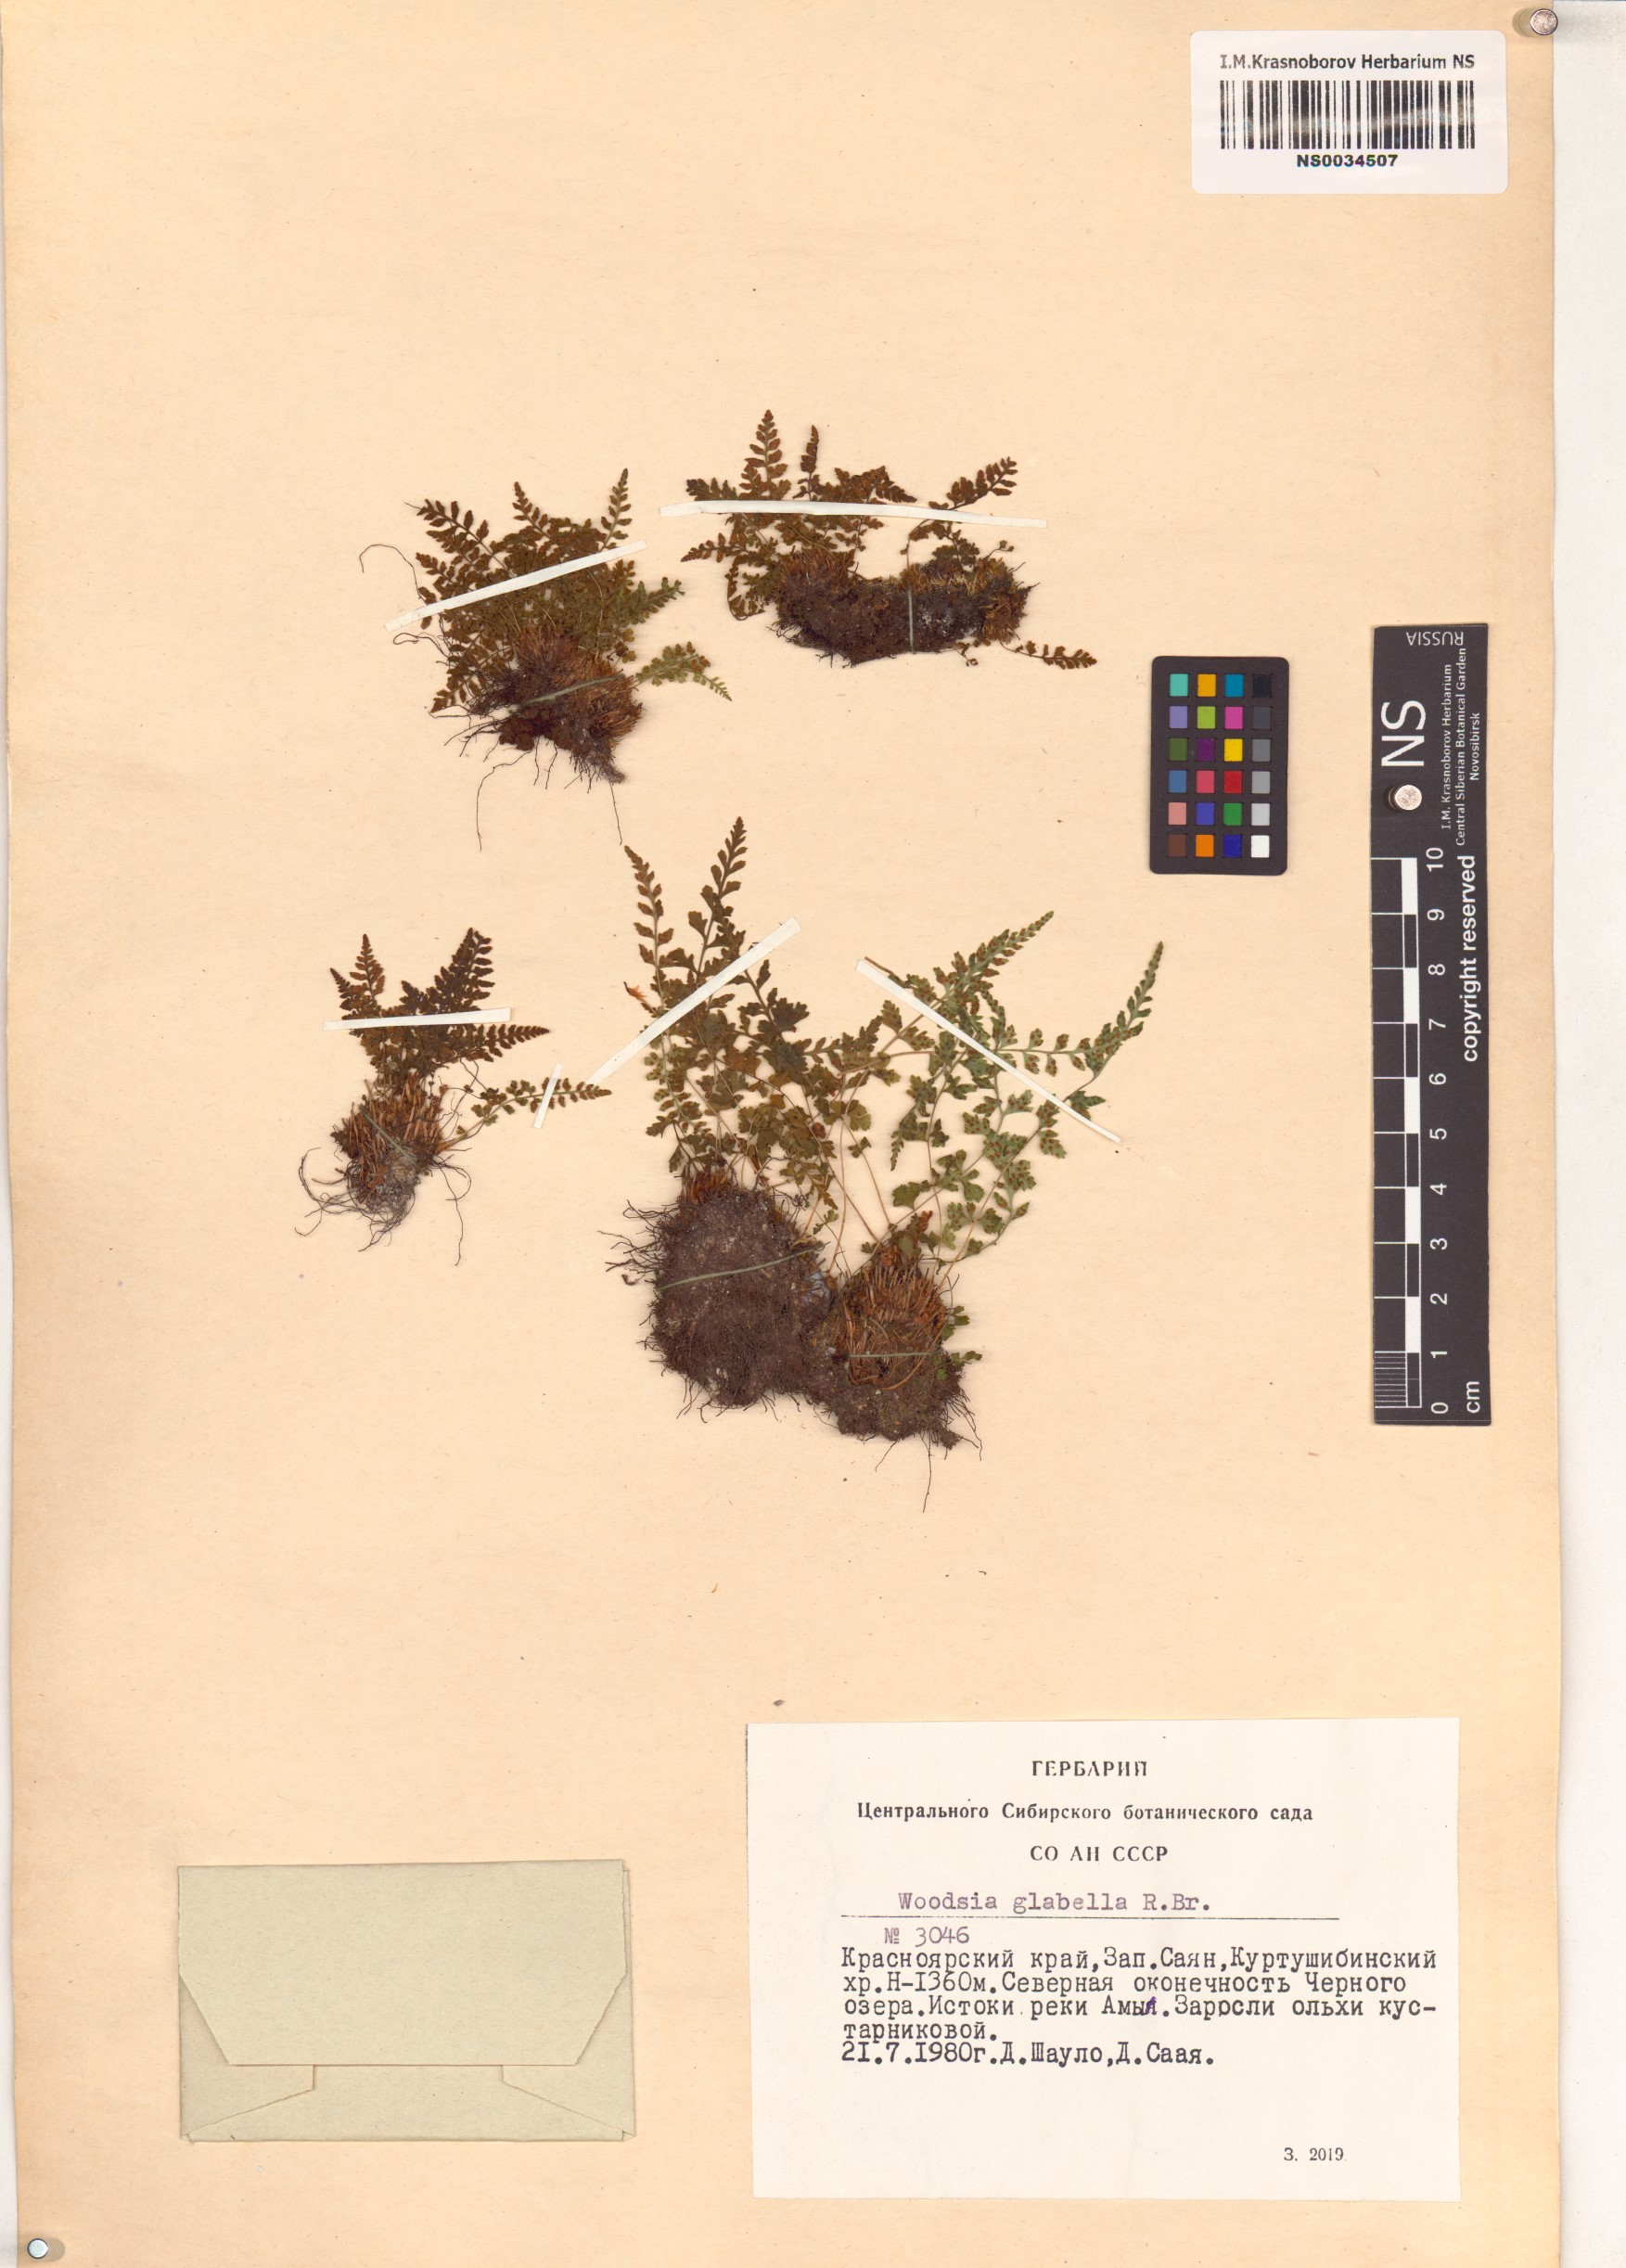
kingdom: Plantae
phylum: Tracheophyta
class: Polypodiopsida
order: Polypodiales
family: Woodsiaceae
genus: Woodsia
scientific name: Woodsia glabella
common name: Smooth woodsia
